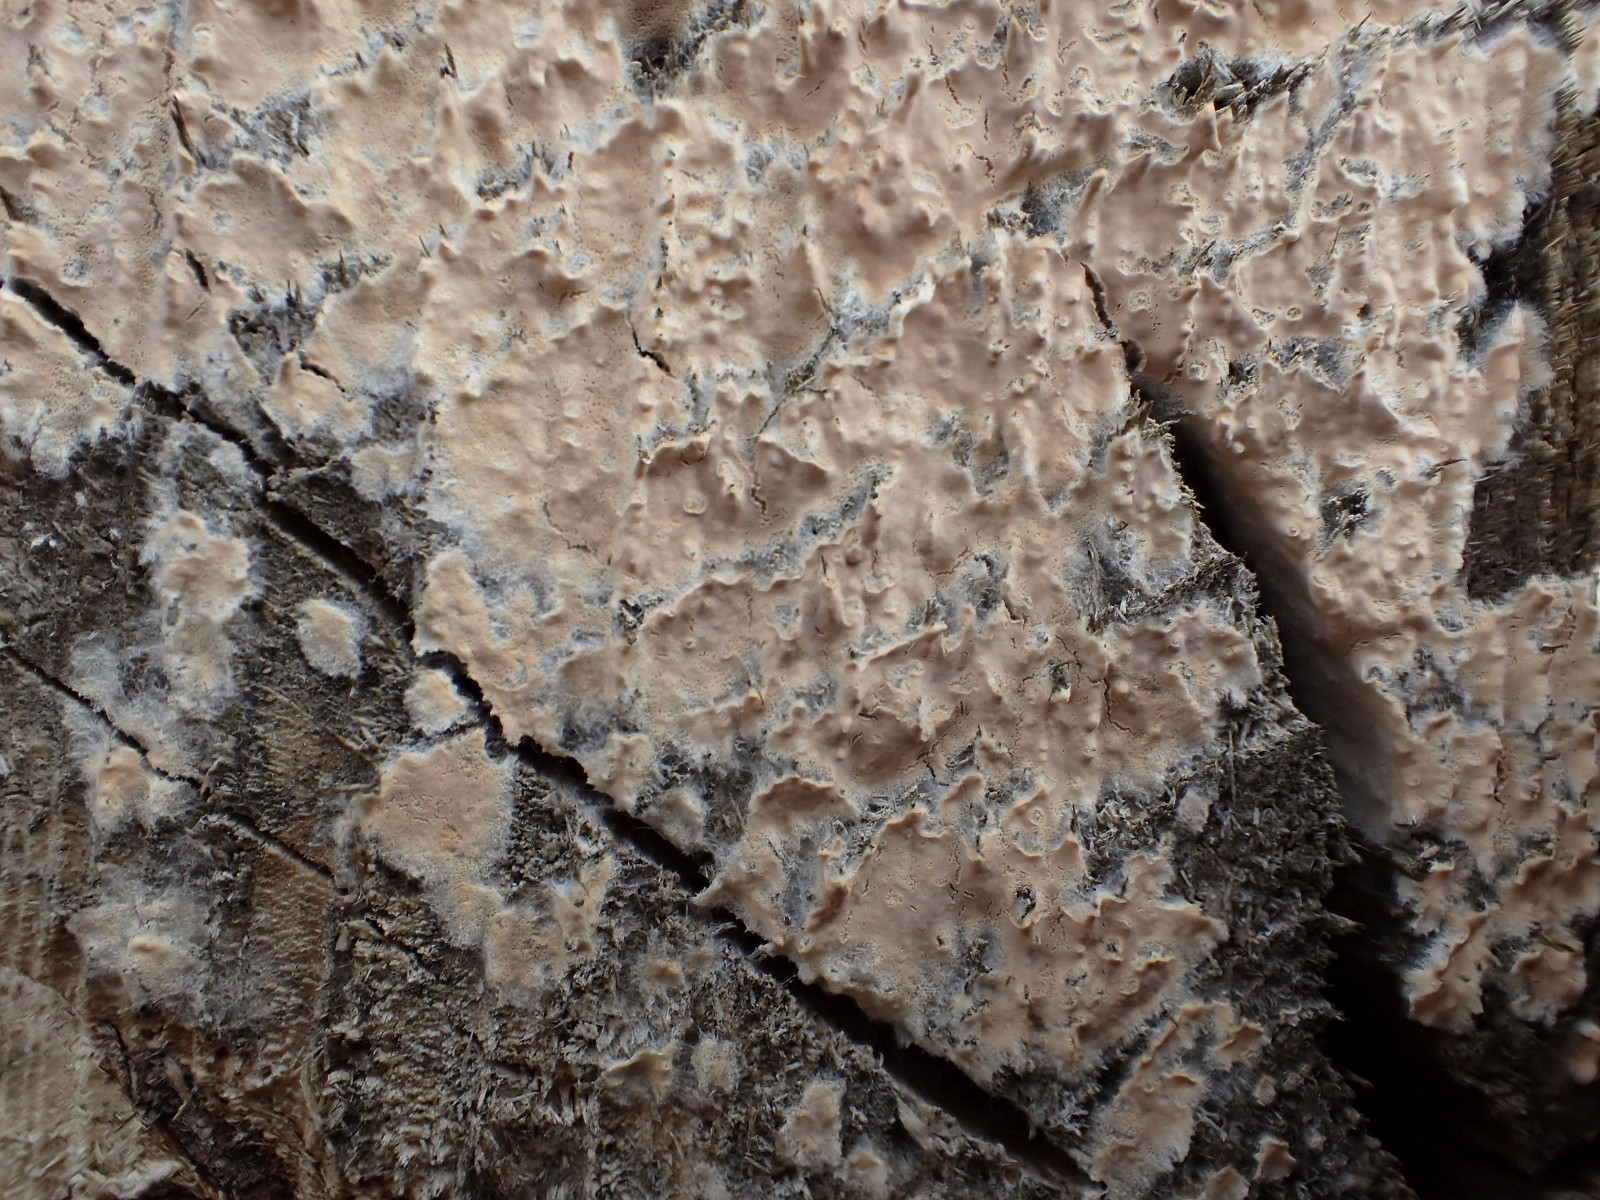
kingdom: Fungi
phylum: Basidiomycota
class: Agaricomycetes
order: Agaricales
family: Physalacriaceae
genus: Cylindrobasidium
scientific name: Cylindrobasidium evolvens
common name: sprækkehinde
